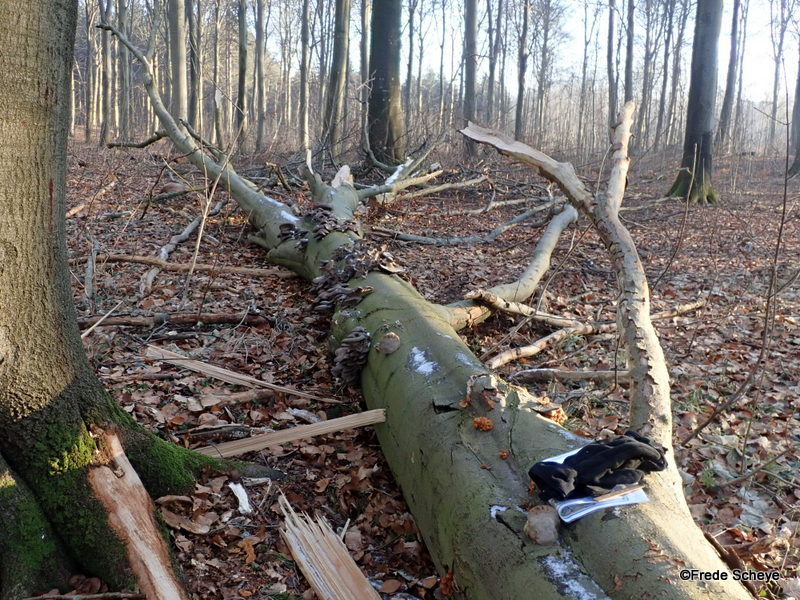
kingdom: Fungi
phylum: Basidiomycota
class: Agaricomycetes
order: Agaricales
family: Pleurotaceae
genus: Pleurotus
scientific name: Pleurotus ostreatus
